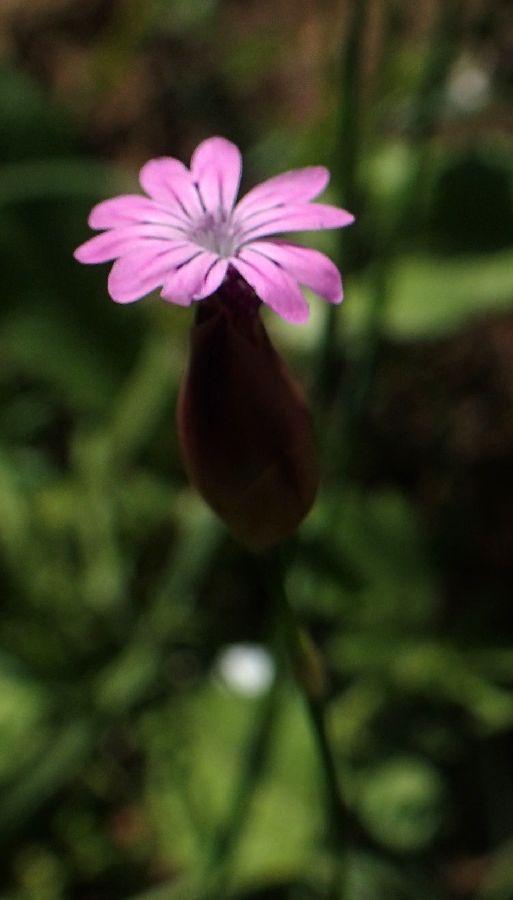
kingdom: Plantae
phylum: Tracheophyta
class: Magnoliopsida
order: Caryophyllales
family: Caryophyllaceae
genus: Petrorhagia
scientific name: Petrorhagia dubia
